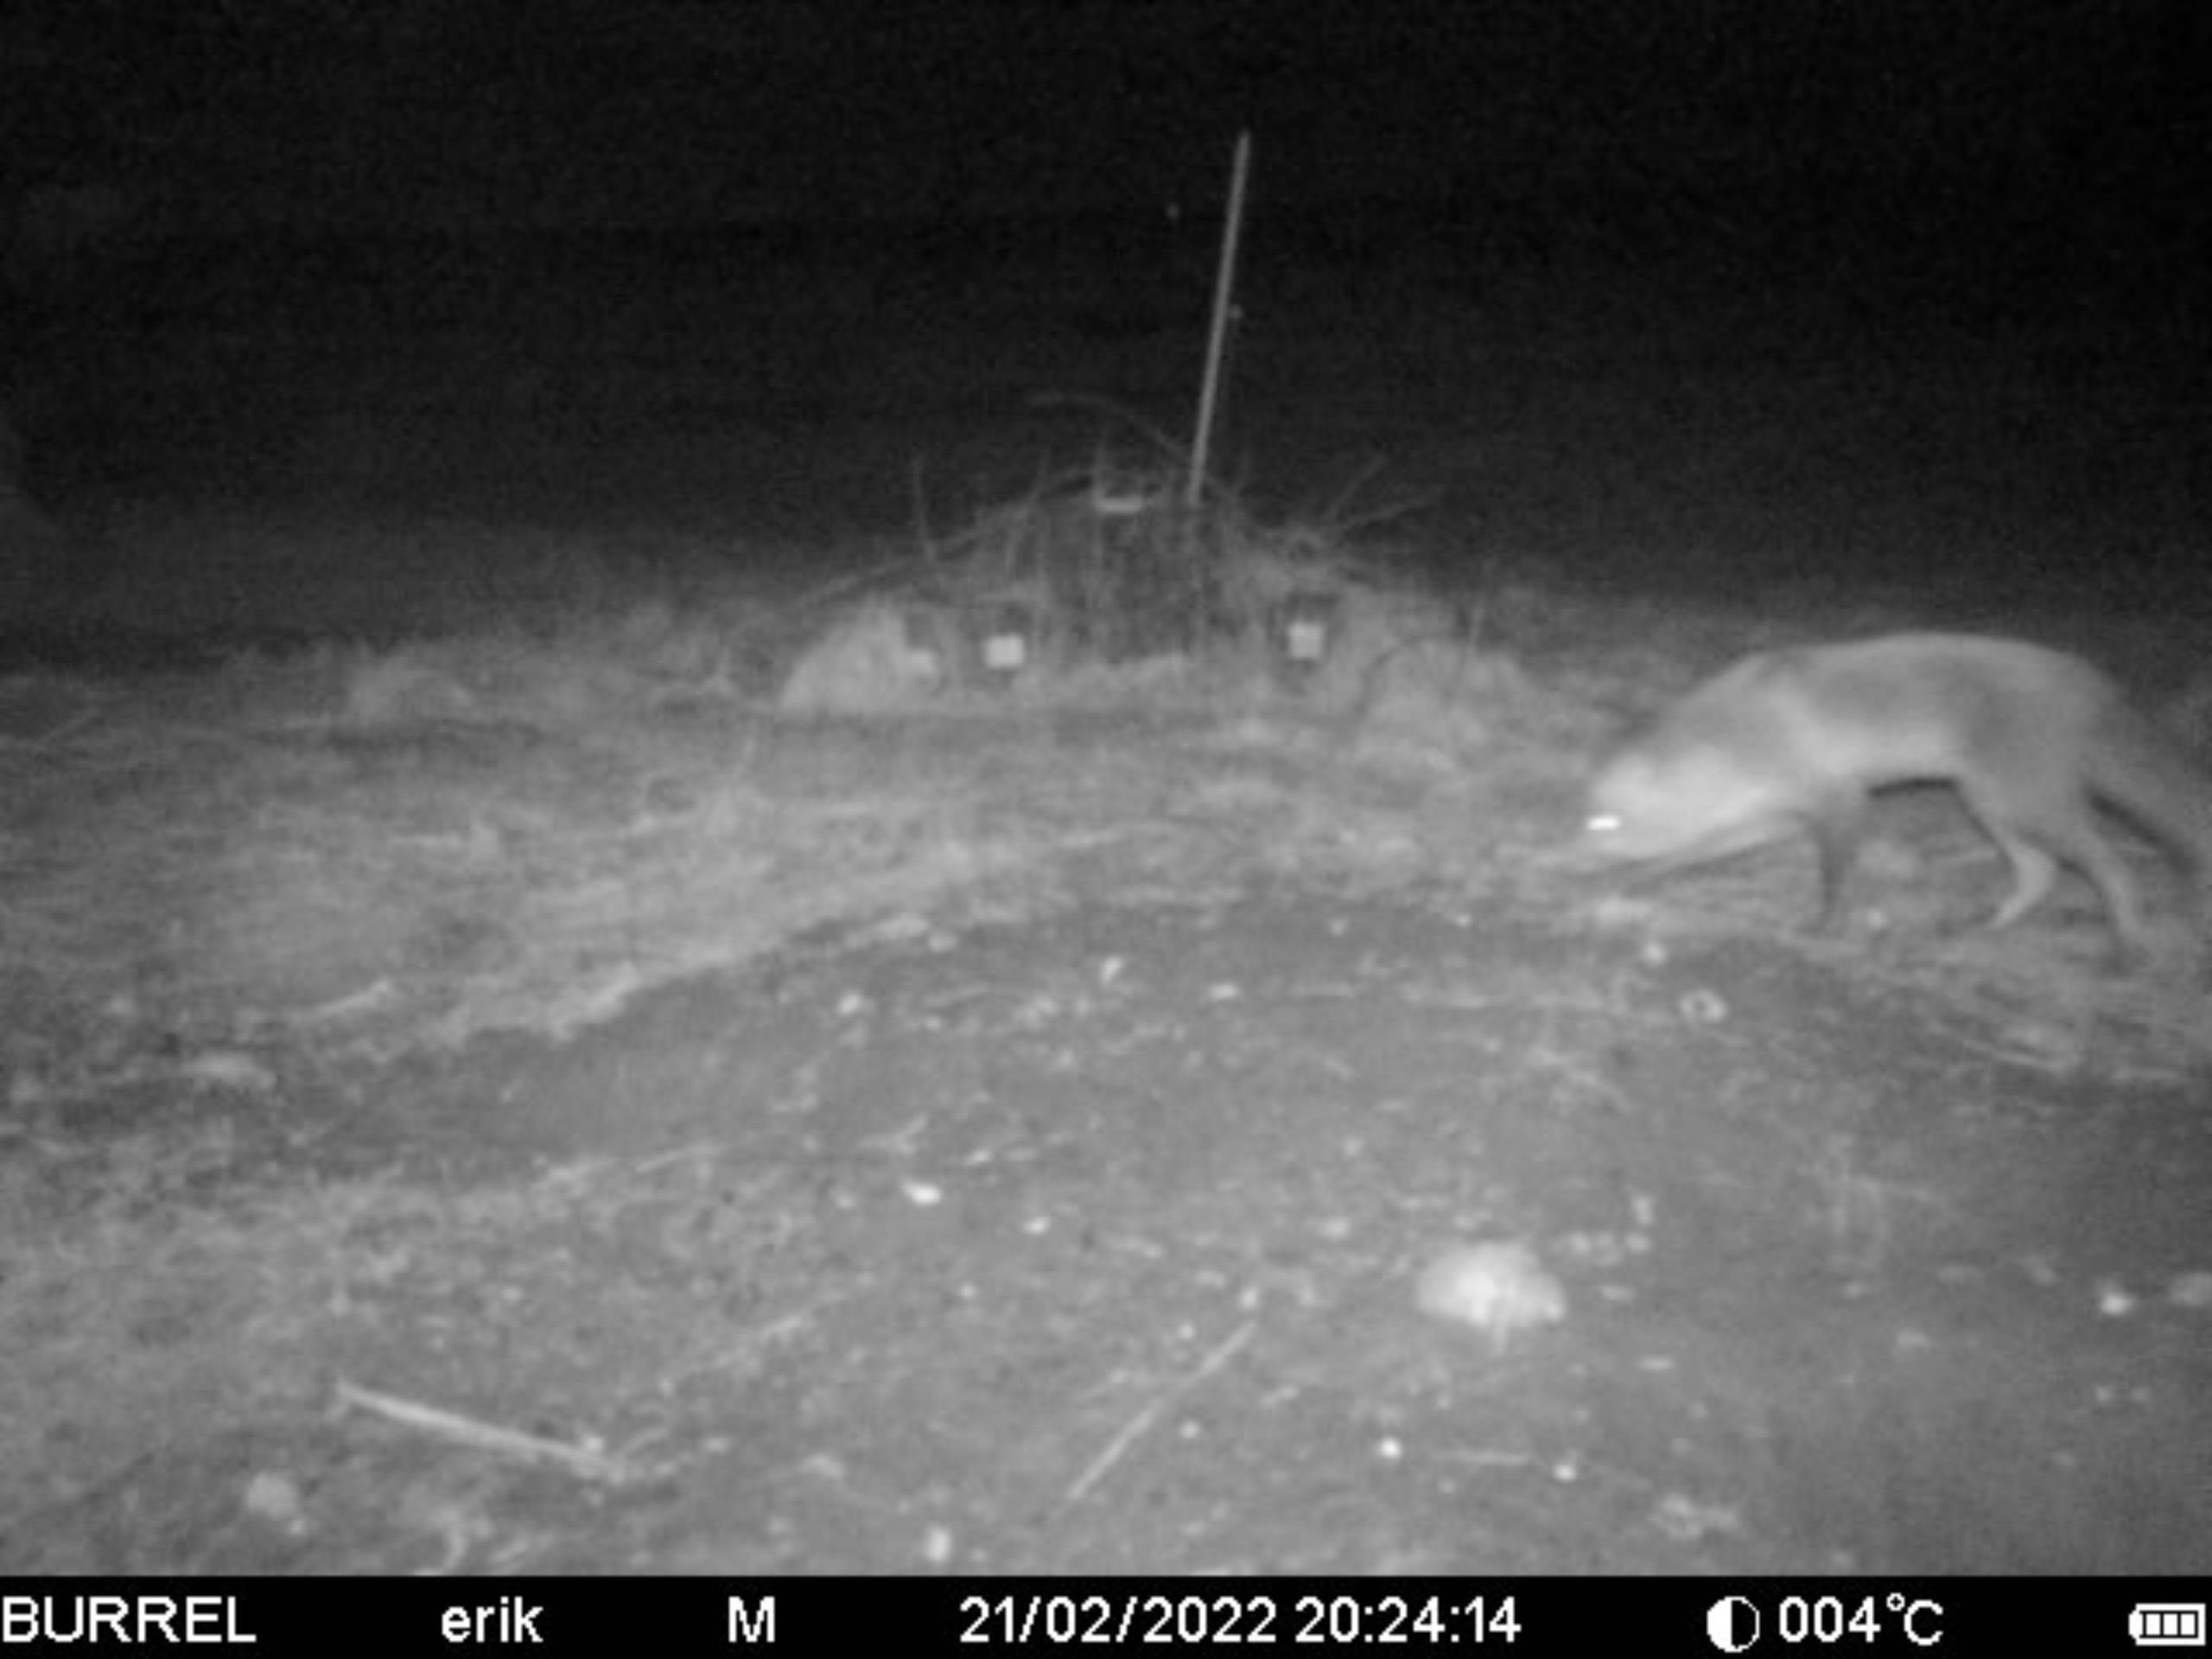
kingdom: Animalia
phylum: Chordata
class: Mammalia
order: Carnivora
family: Canidae
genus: Vulpes
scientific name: Vulpes vulpes
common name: Ræv
